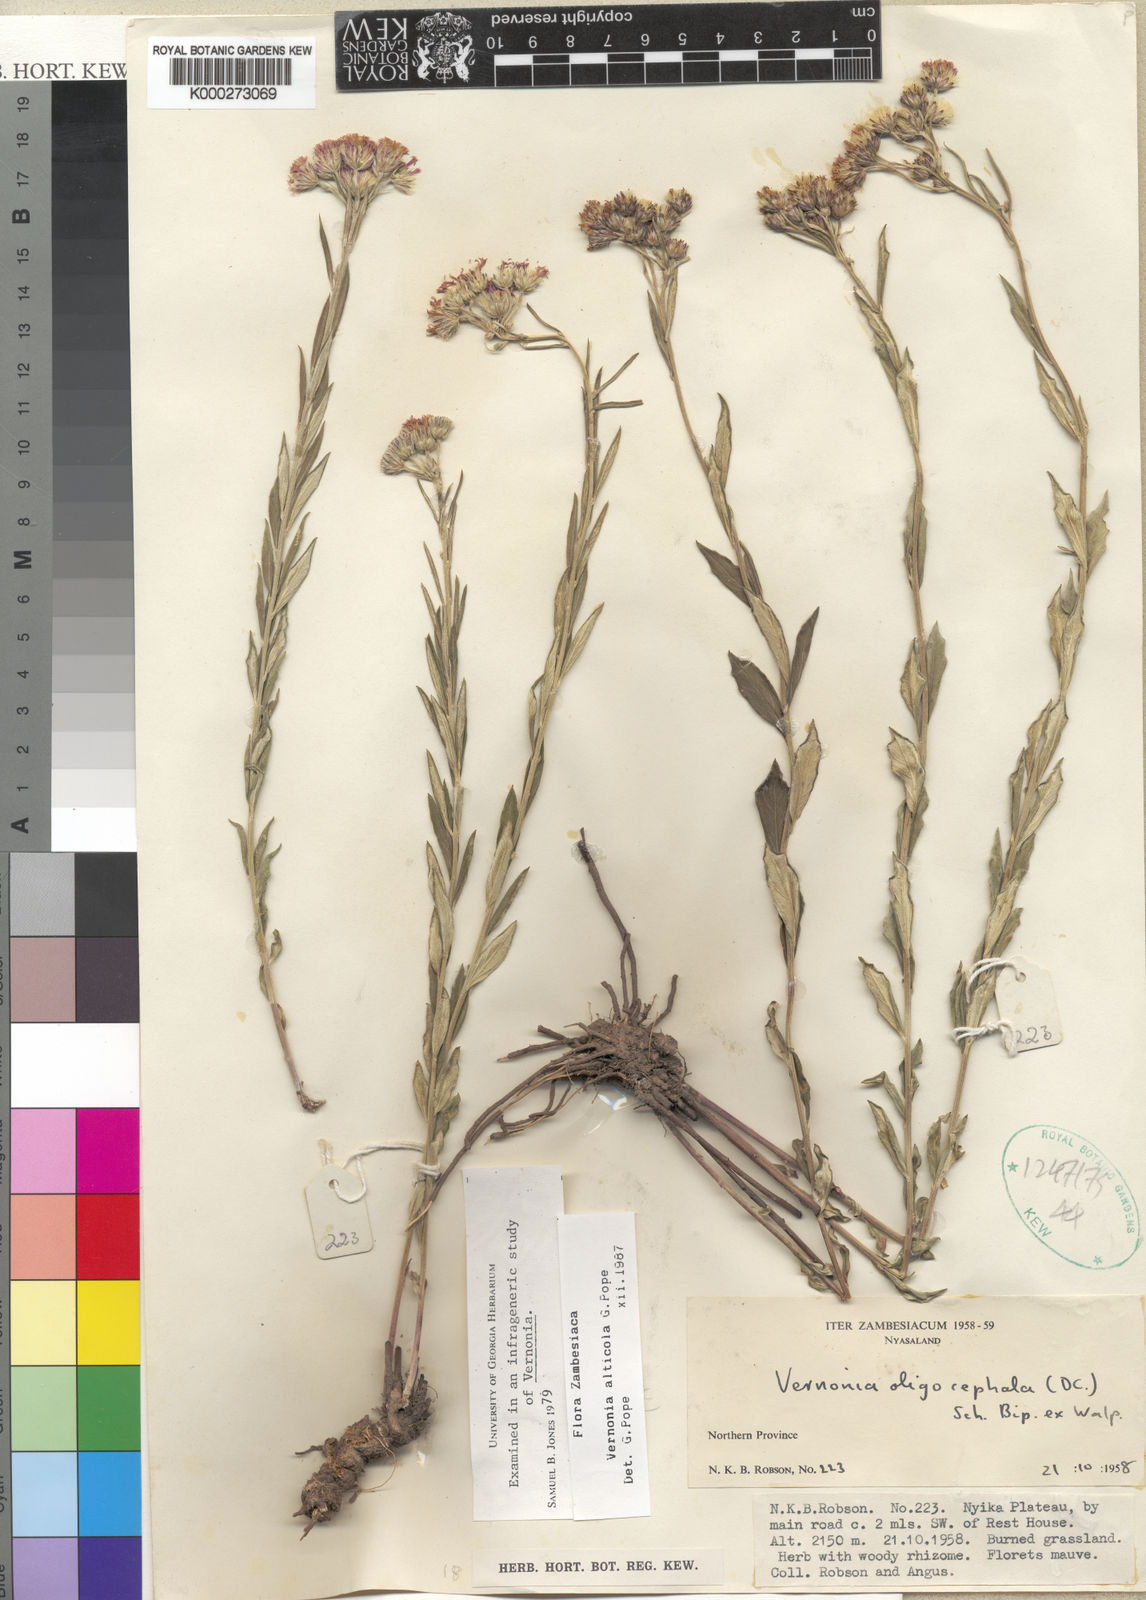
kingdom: Plantae
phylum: Tracheophyta
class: Magnoliopsida
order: Asterales
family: Asteraceae
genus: Vernonia
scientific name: Vernonia alticola
